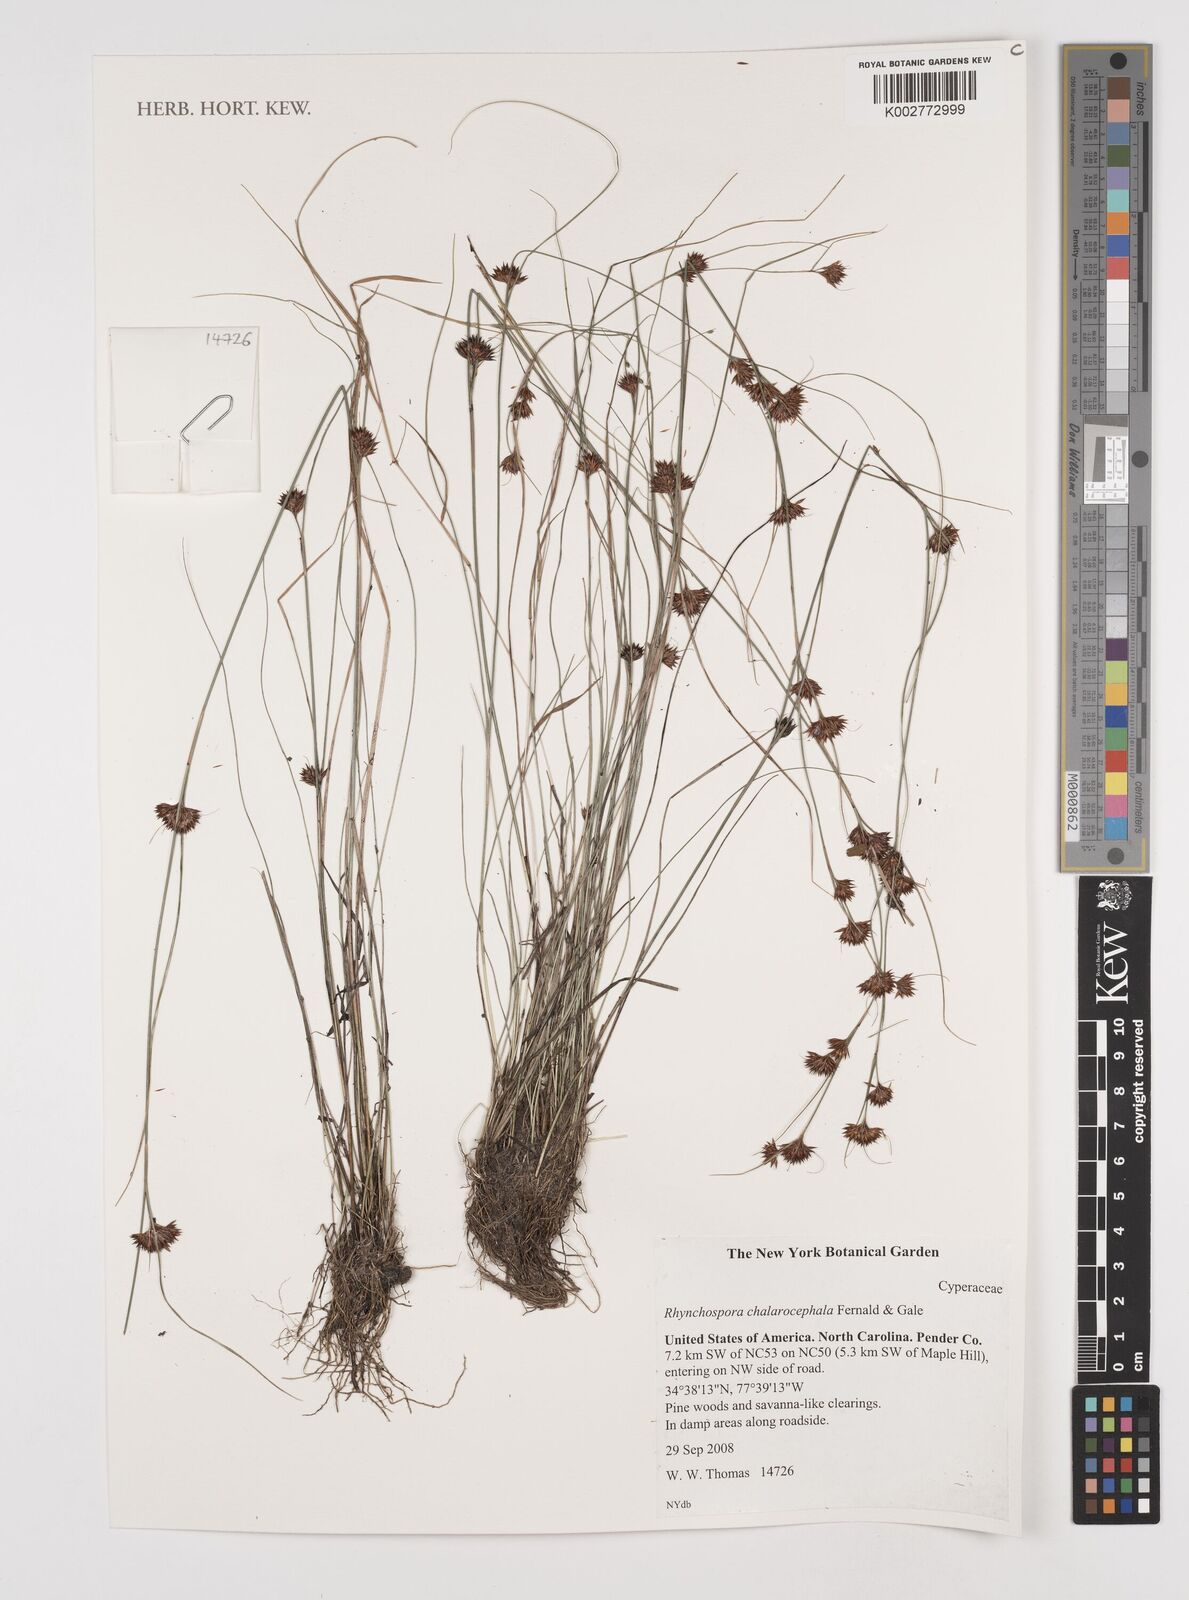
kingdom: Plantae
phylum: Tracheophyta
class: Liliopsida
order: Poales
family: Cyperaceae
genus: Rhynchospora
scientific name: Rhynchospora chalarocephala
